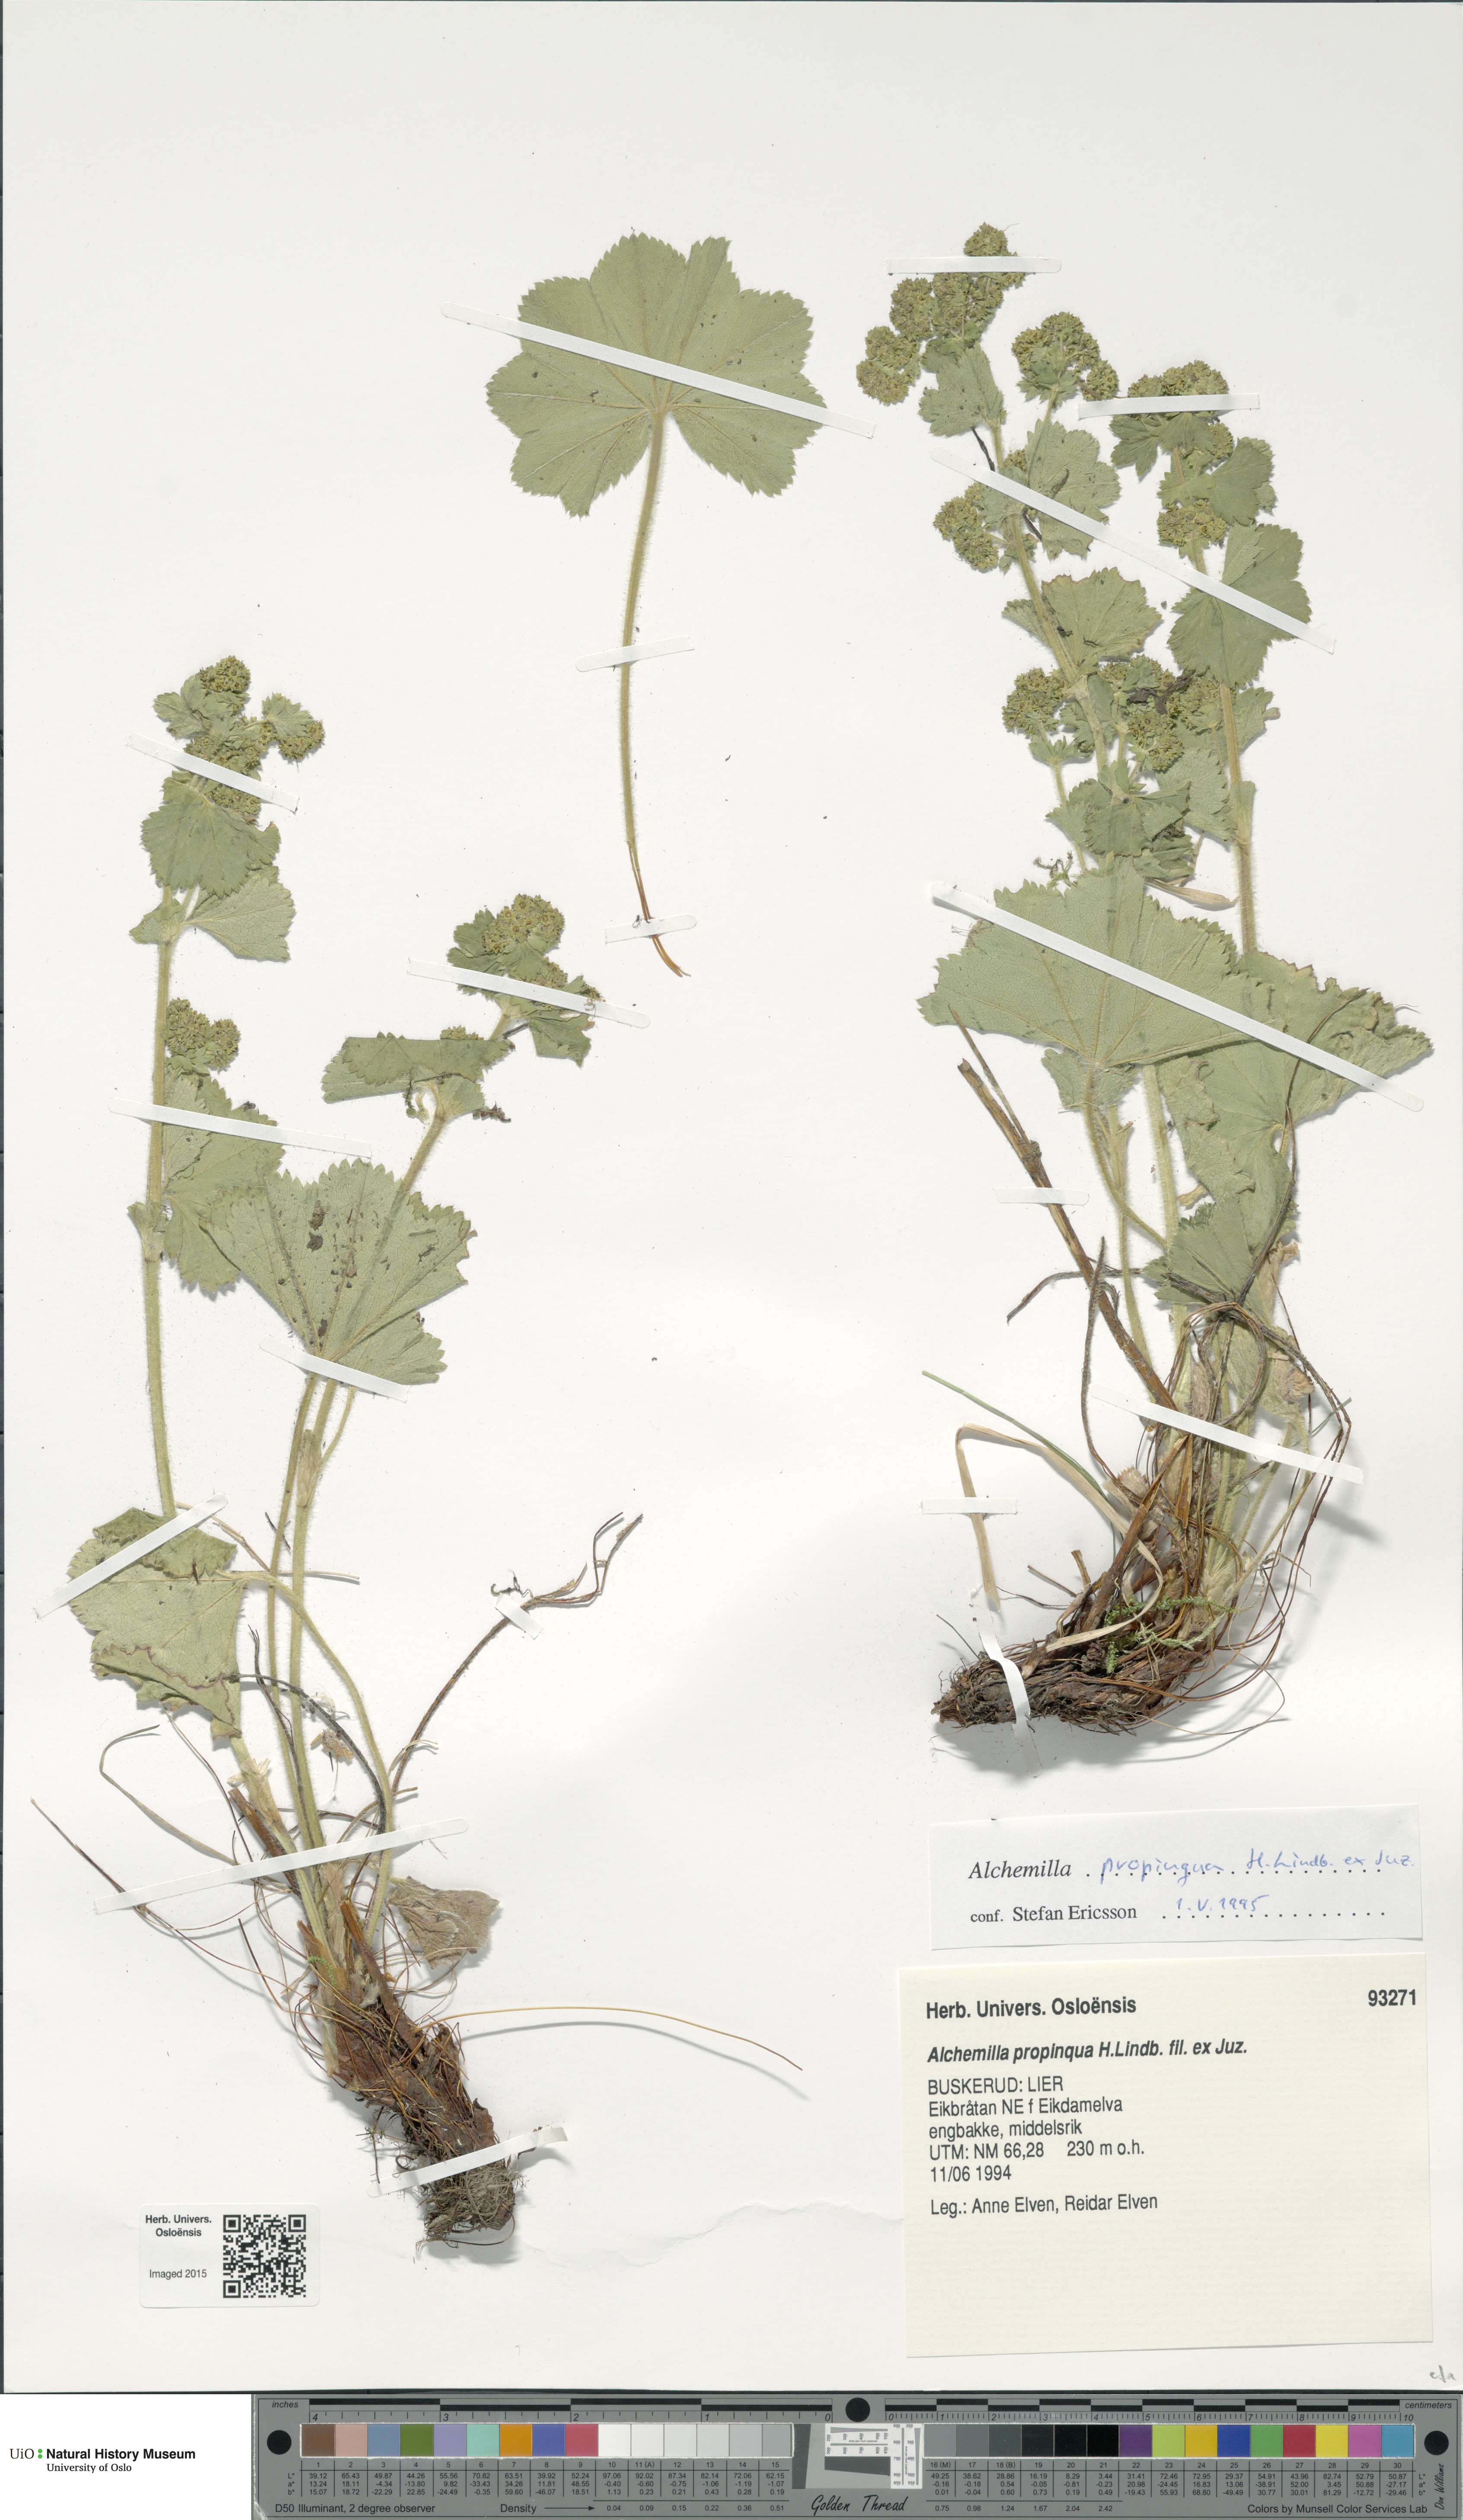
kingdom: Plantae
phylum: Tracheophyta
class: Magnoliopsida
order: Rosales
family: Rosaceae
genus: Alchemilla
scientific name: Alchemilla propinqua
